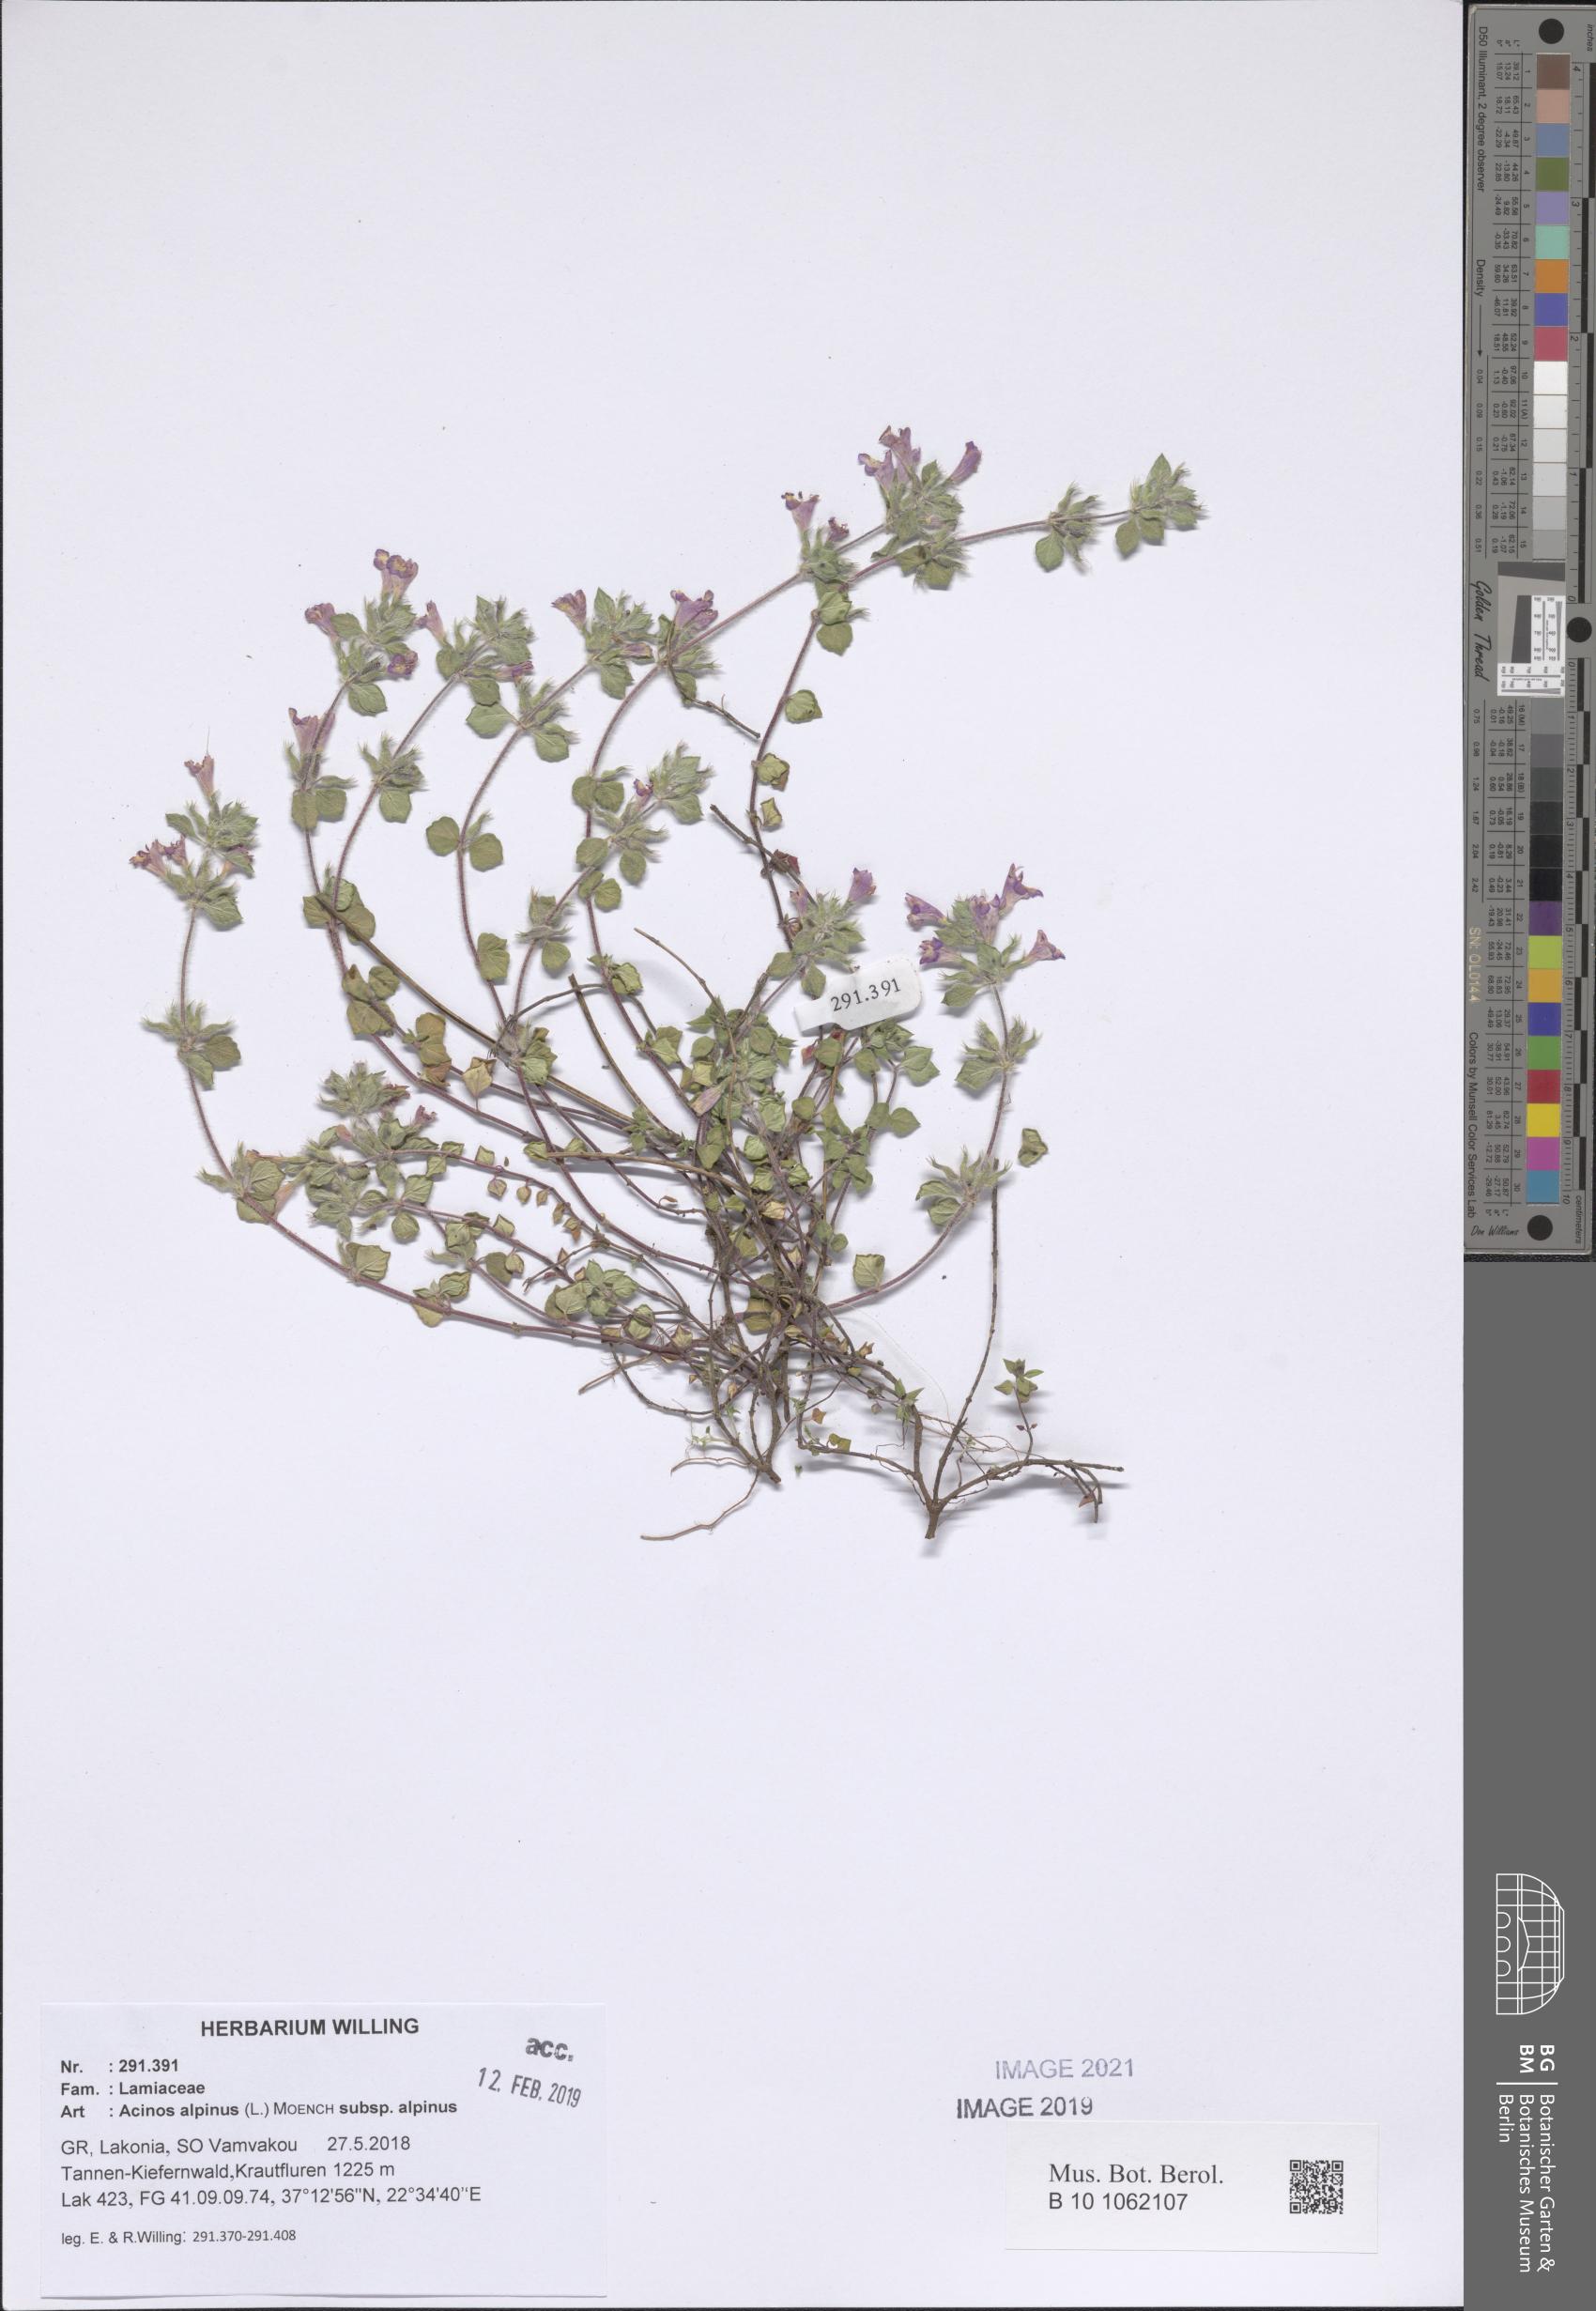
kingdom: Plantae
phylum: Tracheophyta
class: Magnoliopsida
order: Lamiales
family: Lamiaceae
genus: Clinopodium
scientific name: Clinopodium alpinum
